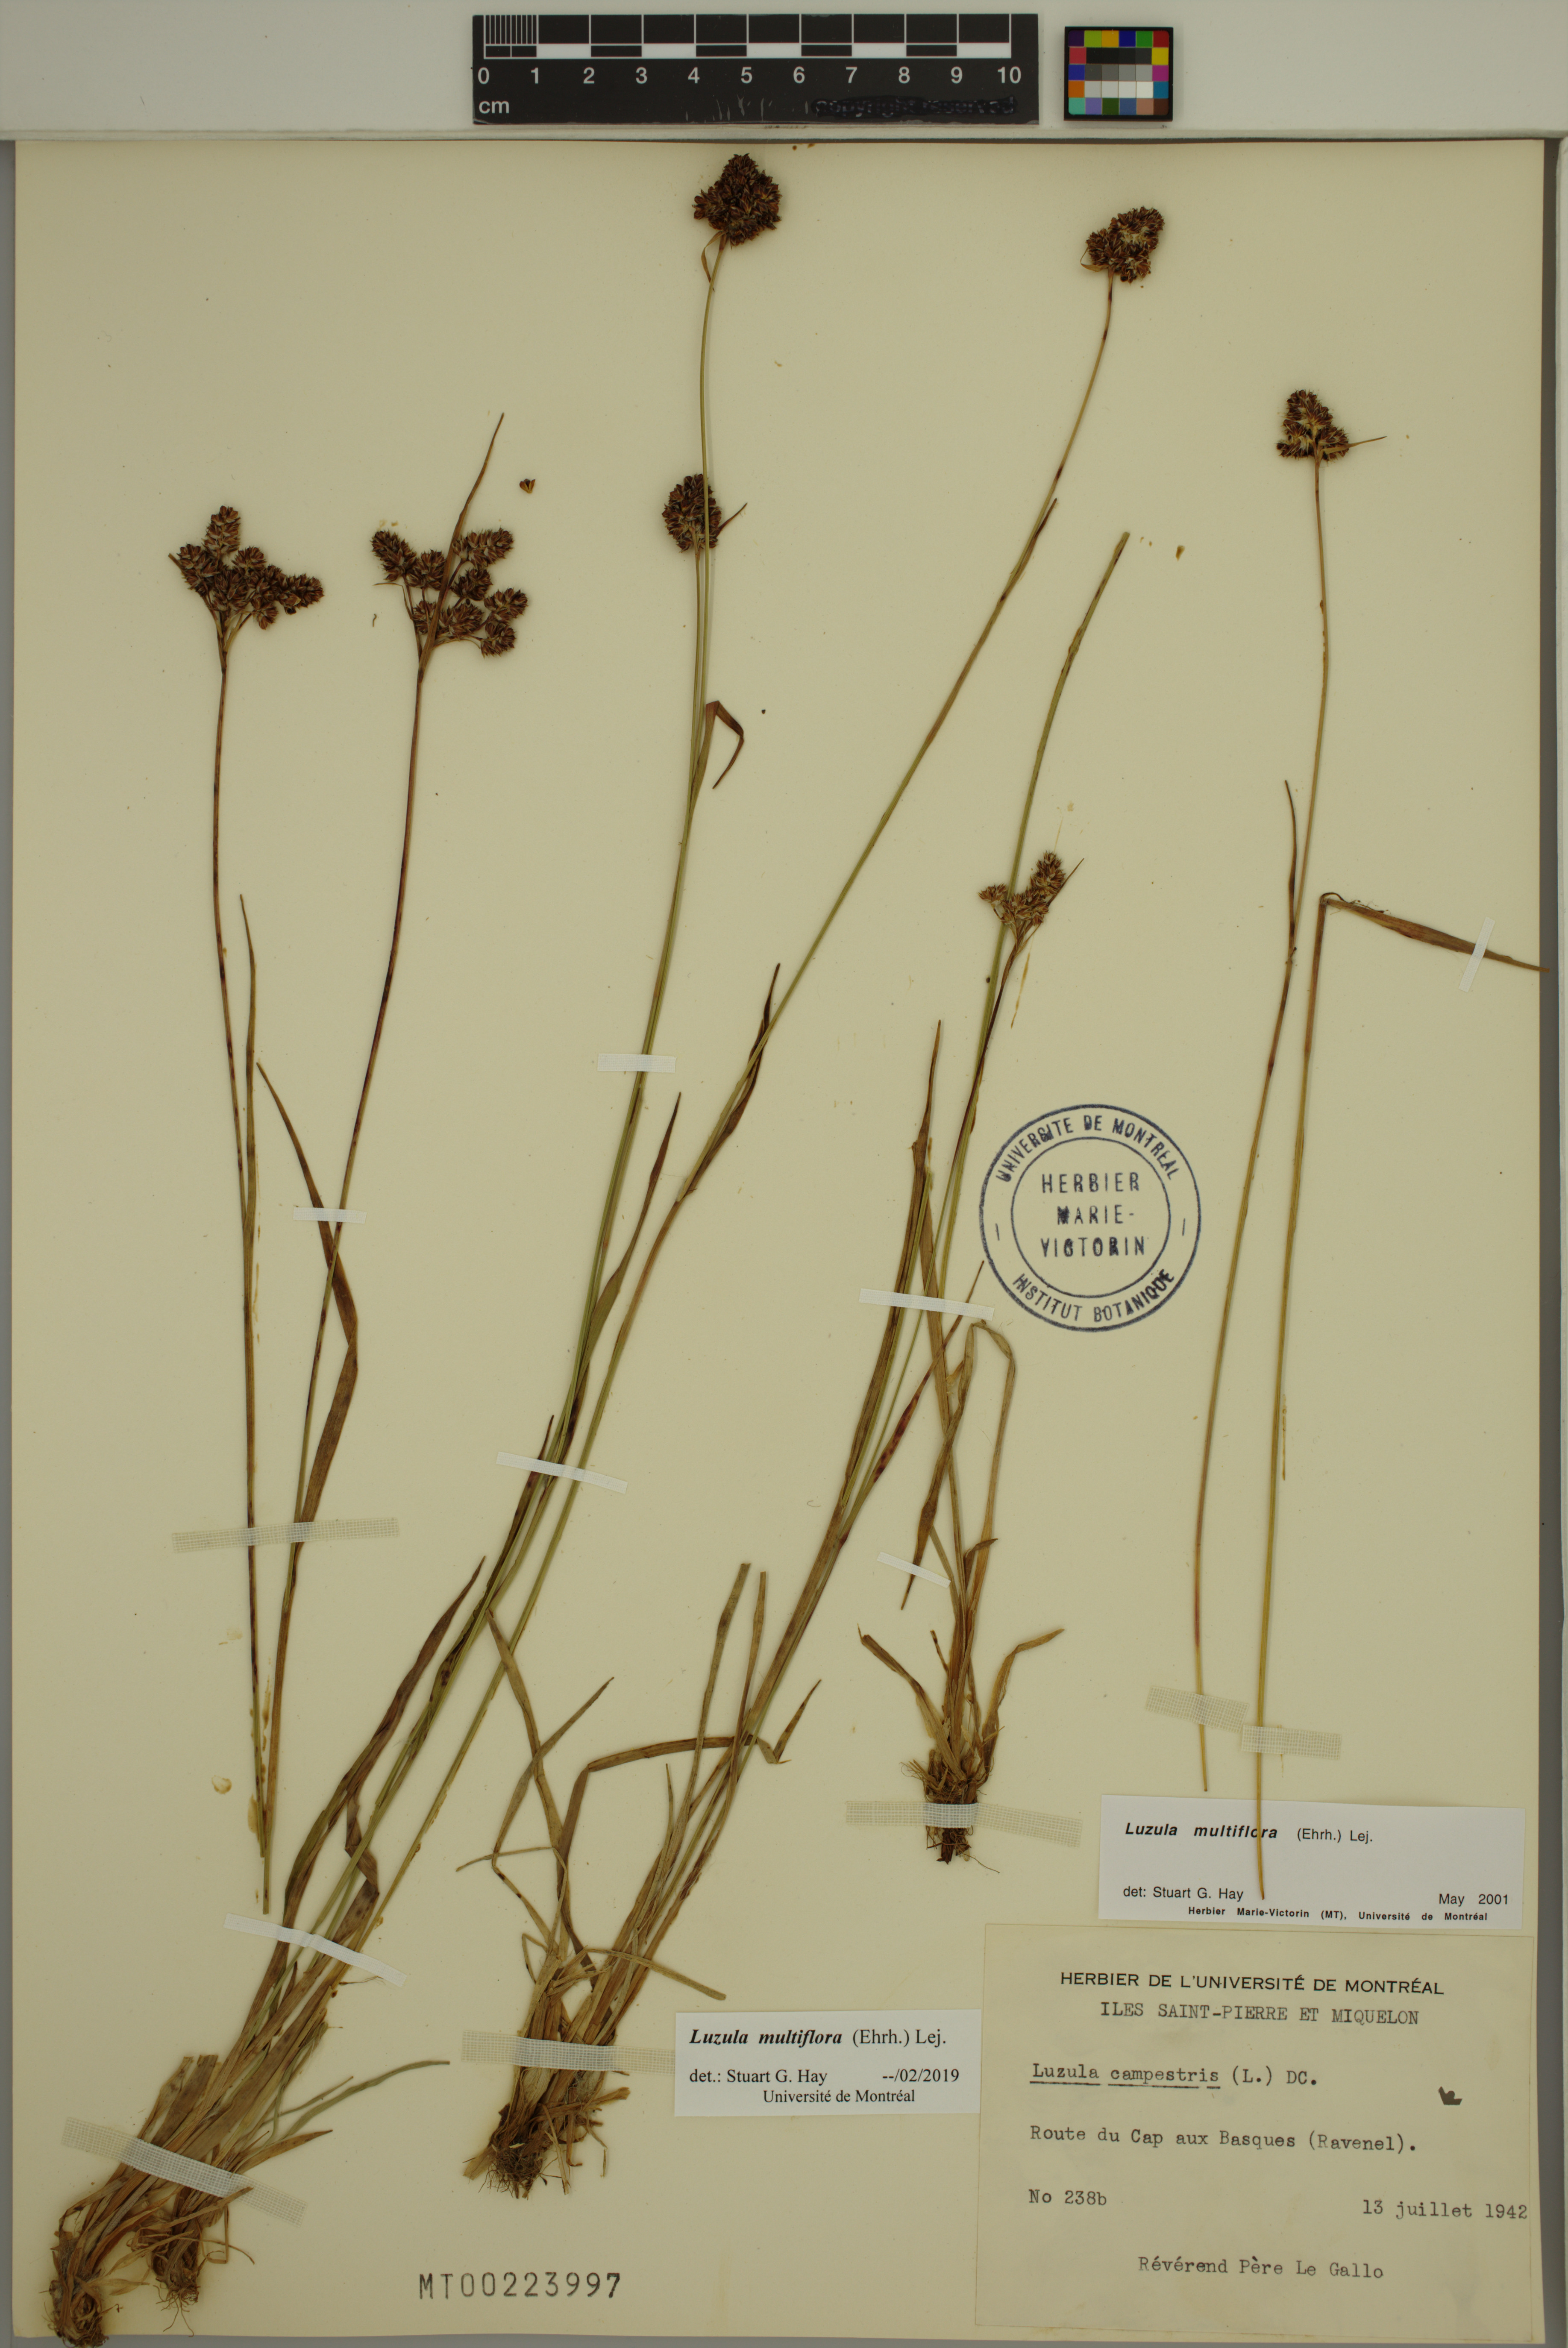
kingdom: Plantae
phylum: Tracheophyta
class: Liliopsida
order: Poales
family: Juncaceae
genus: Luzula
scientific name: Luzula multiflora
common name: Heath wood-rush
